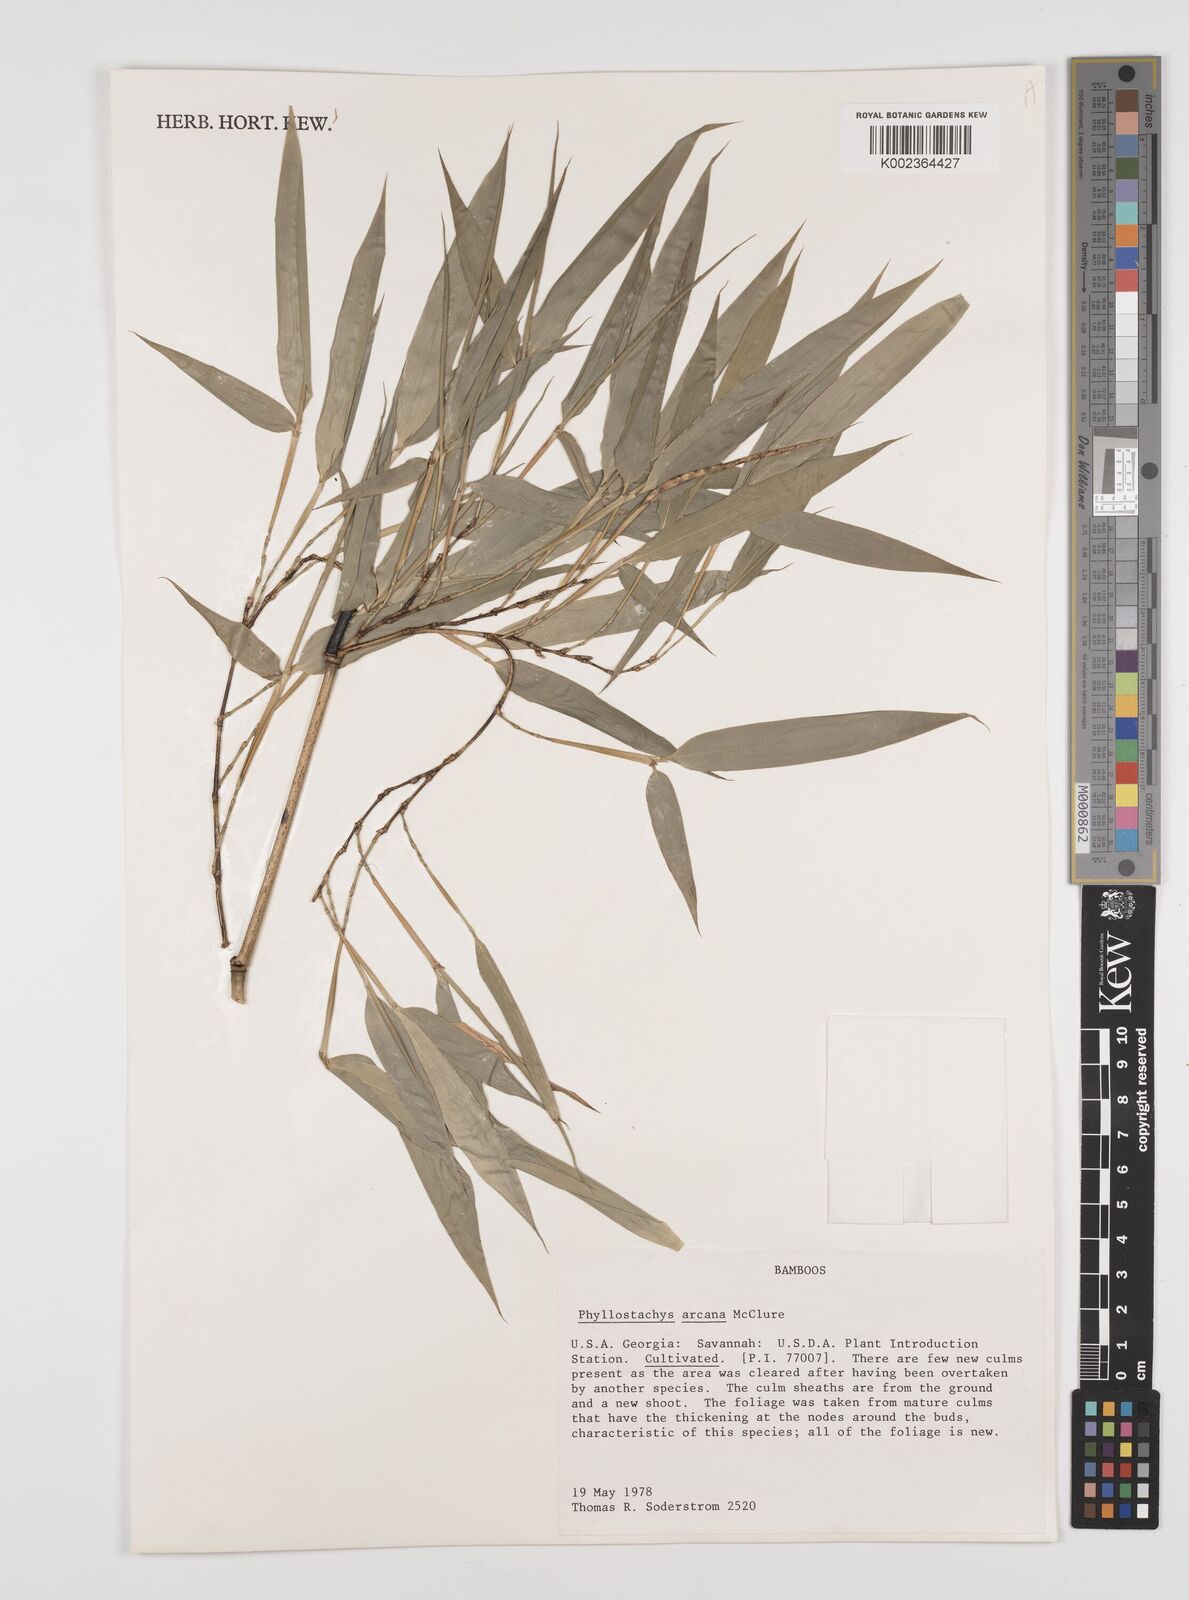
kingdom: Plantae
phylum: Tracheophyta
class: Liliopsida
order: Poales
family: Poaceae
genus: Phyllostachys
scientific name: Phyllostachys arcana
